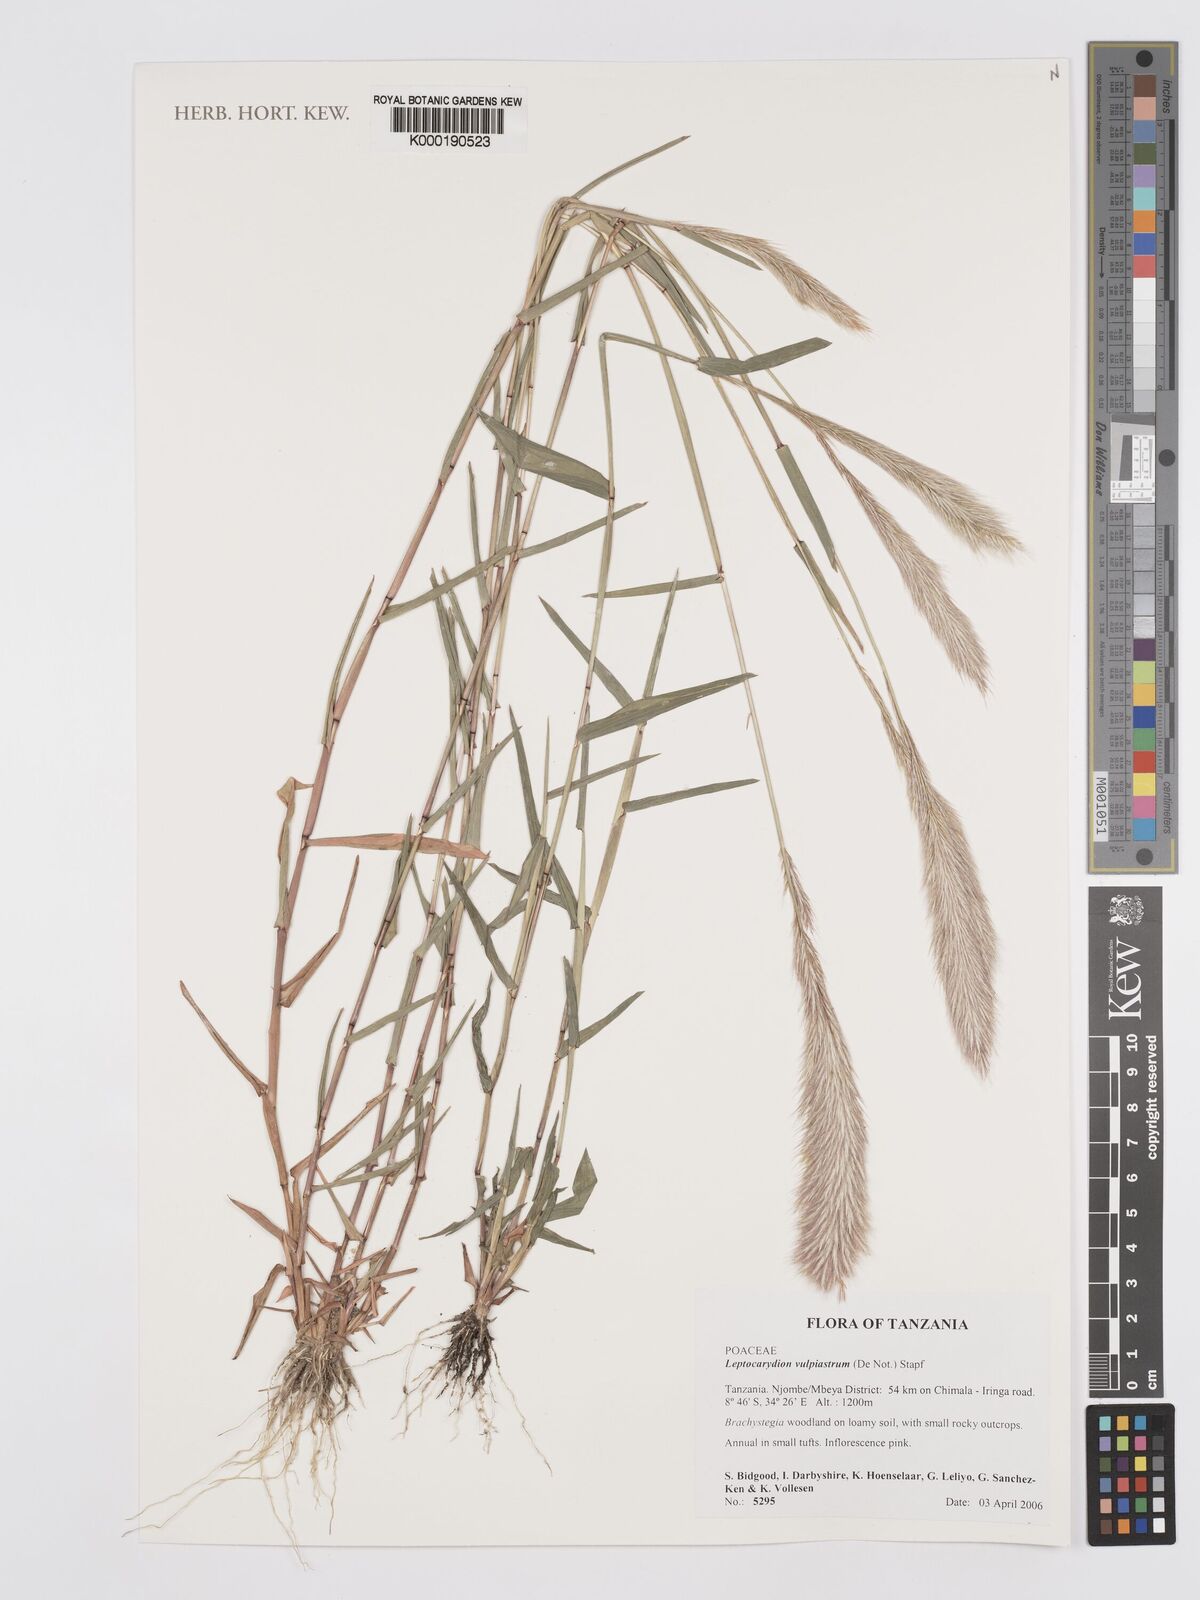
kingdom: Plantae
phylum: Tracheophyta
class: Liliopsida
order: Poales
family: Poaceae
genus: Leptocarydion
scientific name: Leptocarydion vulpiastrum
